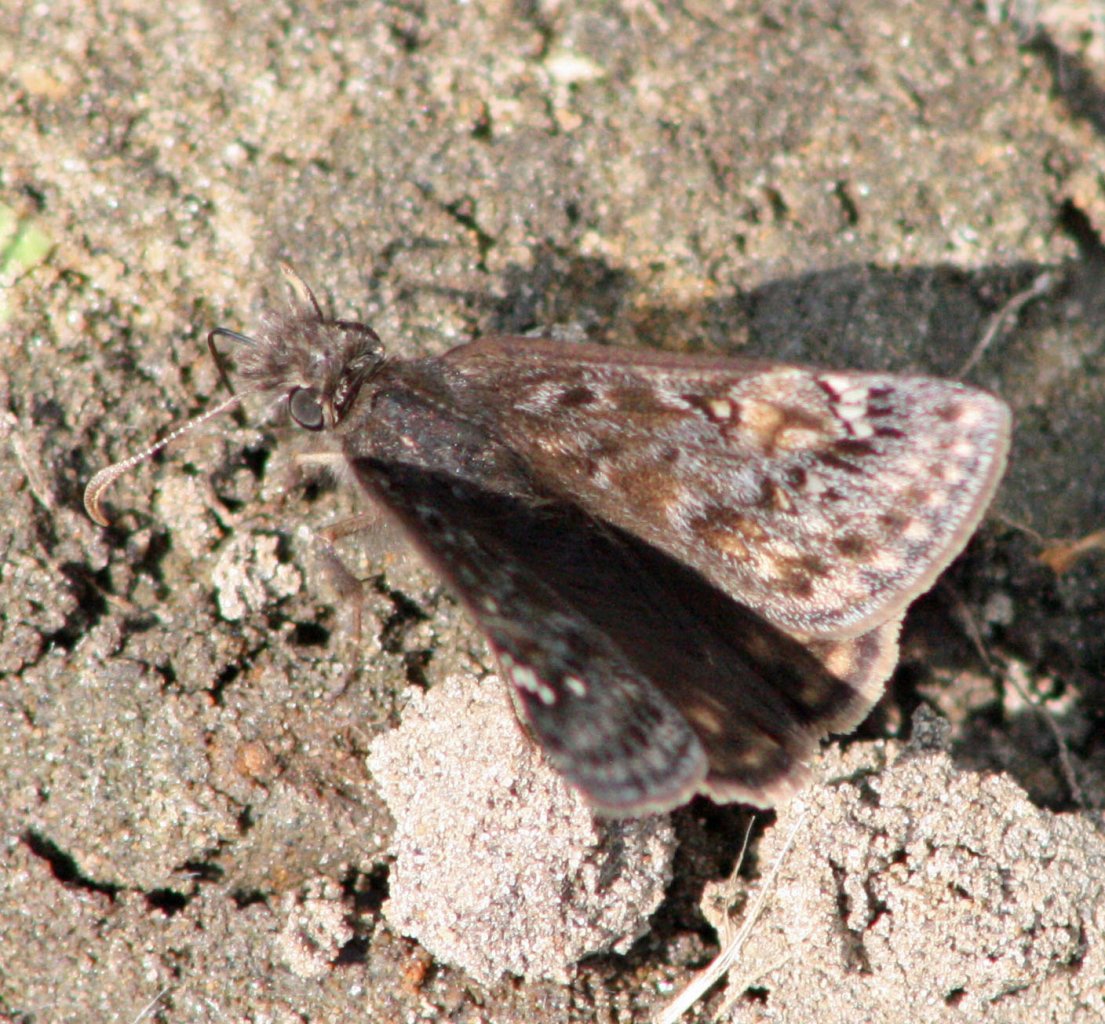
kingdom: Animalia
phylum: Arthropoda
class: Insecta
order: Lepidoptera
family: Hesperiidae
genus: Gesta
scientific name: Gesta
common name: Juvenal's Duskywing
